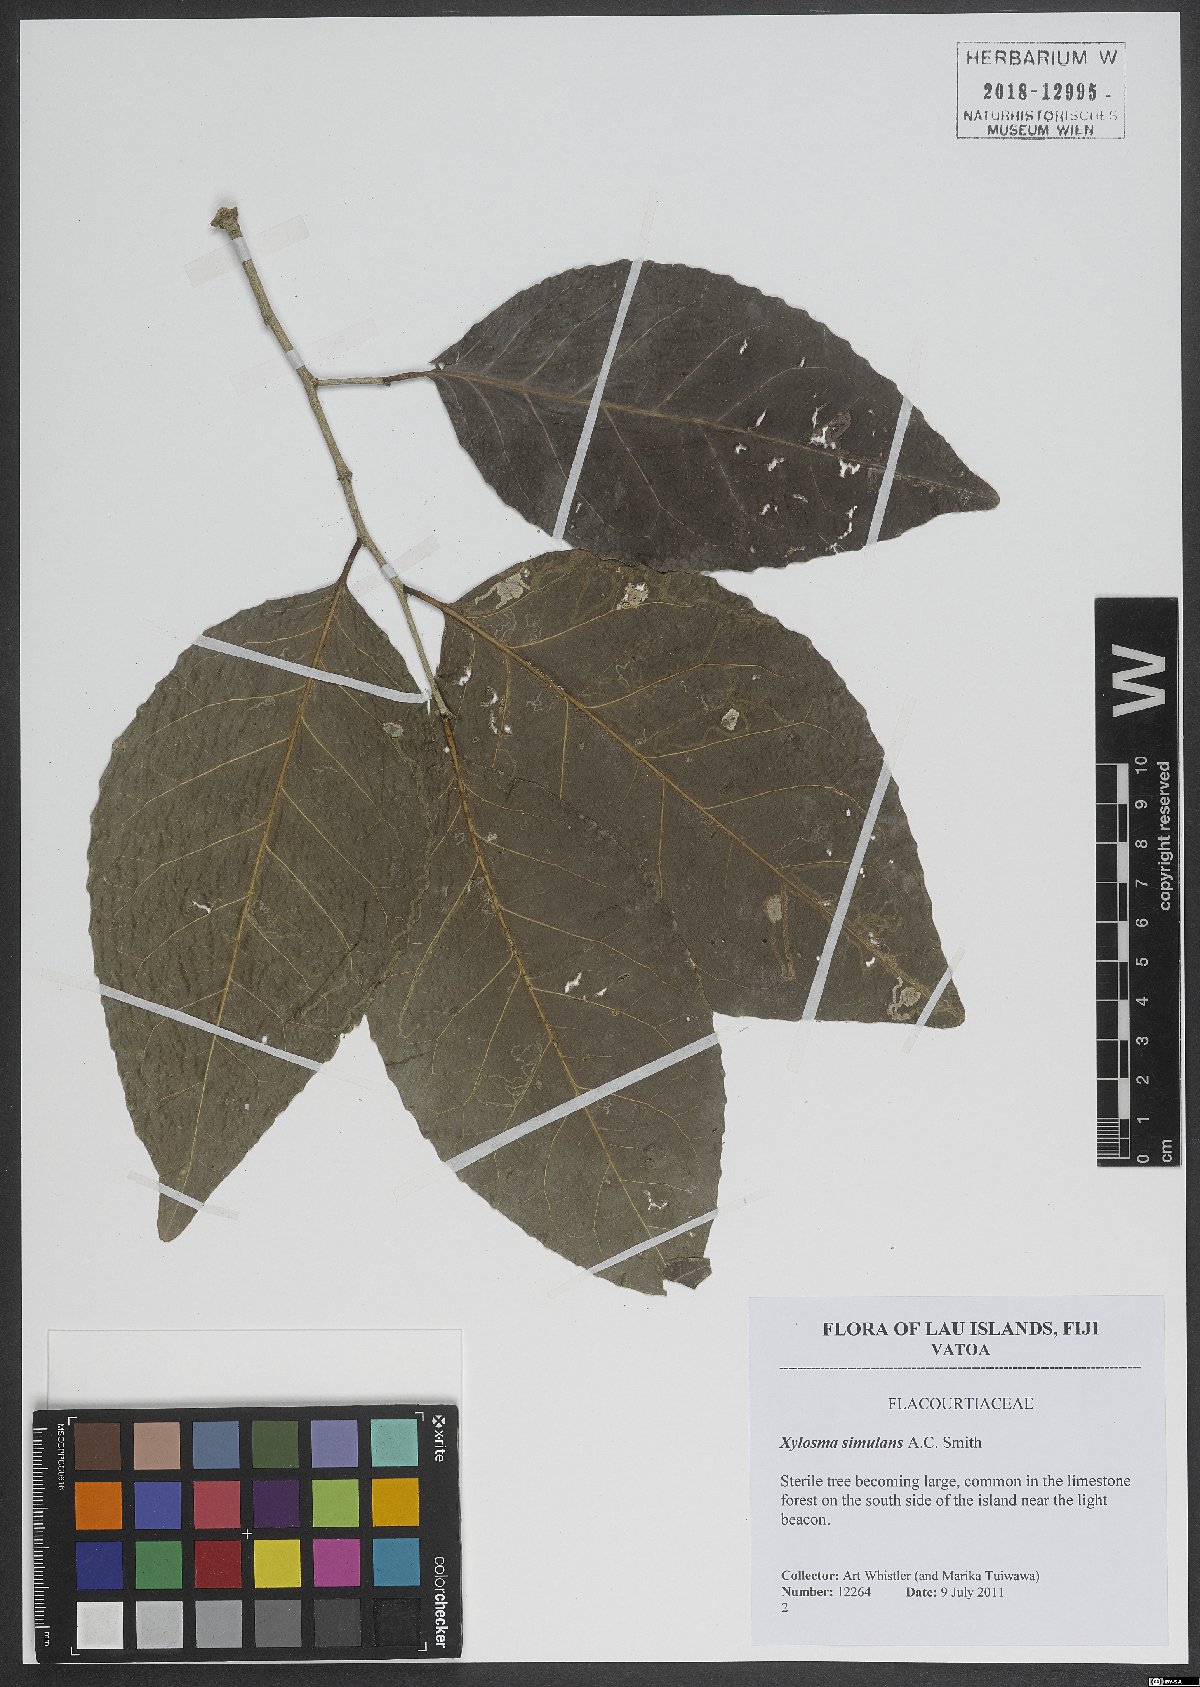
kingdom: Plantae
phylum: Tracheophyta
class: Magnoliopsida
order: Malpighiales
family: Salicaceae
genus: Xylosma
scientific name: Xylosma simulans
